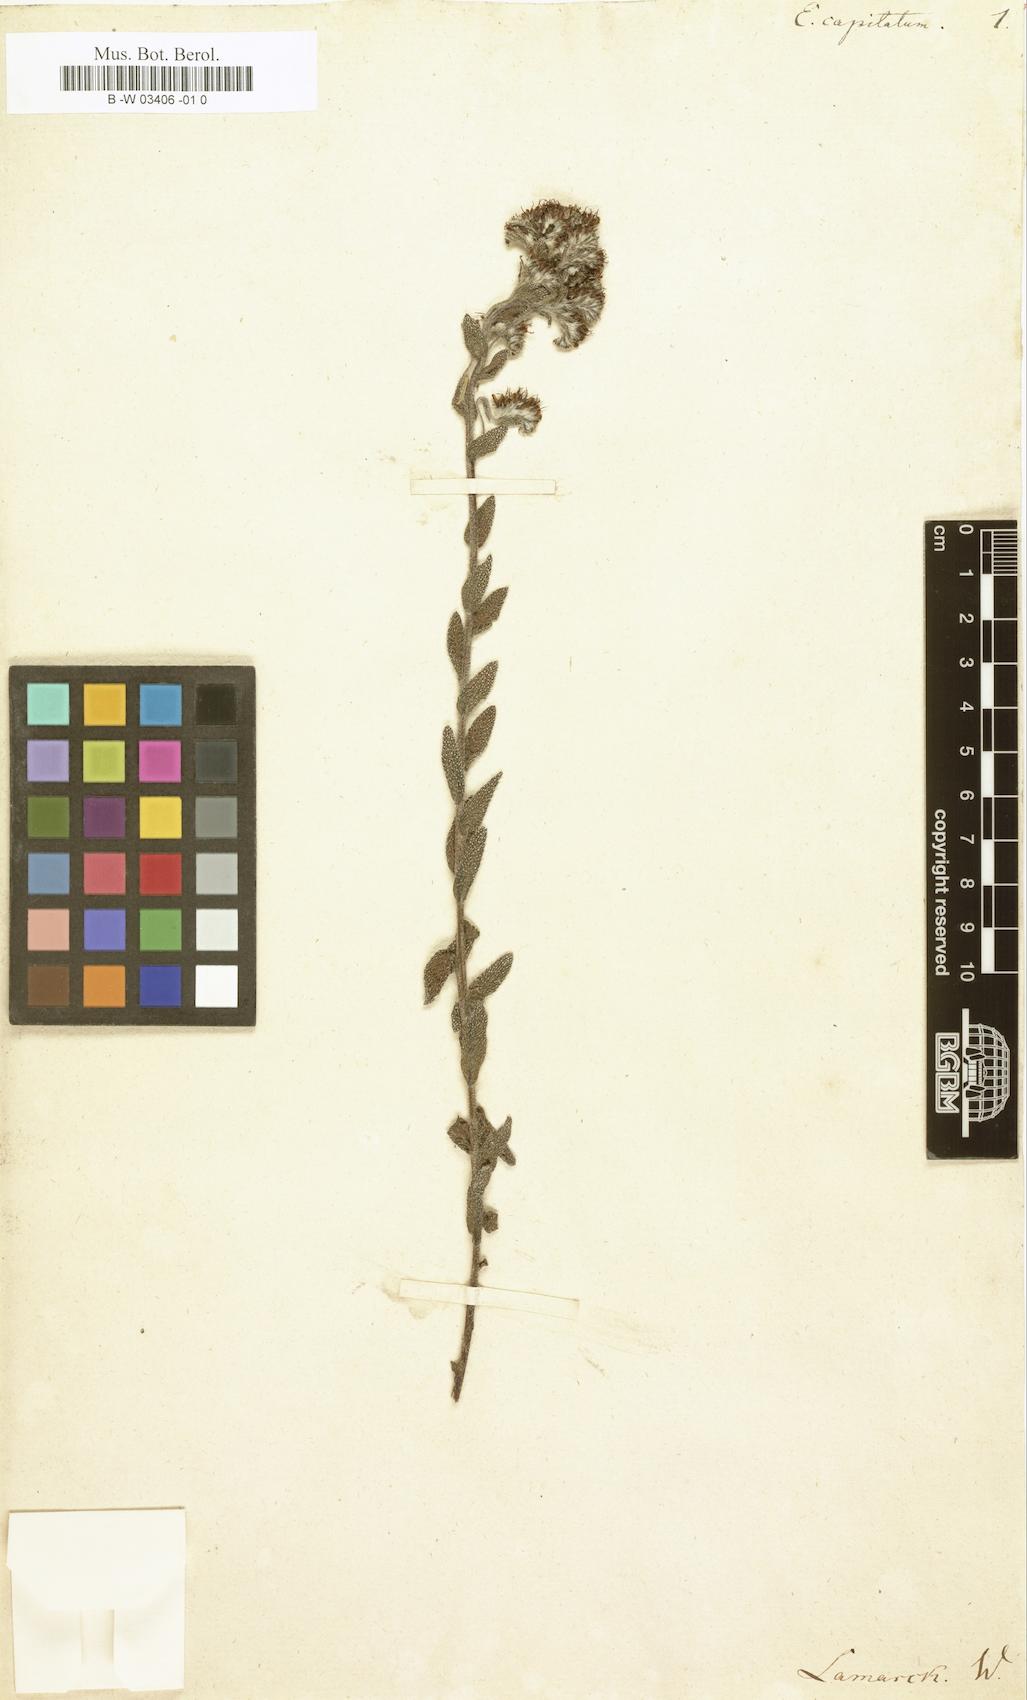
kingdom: Plantae
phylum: Tracheophyta
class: Magnoliopsida
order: Boraginales
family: Boraginaceae
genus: Lobostemon
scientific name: Lobostemon capitatus
